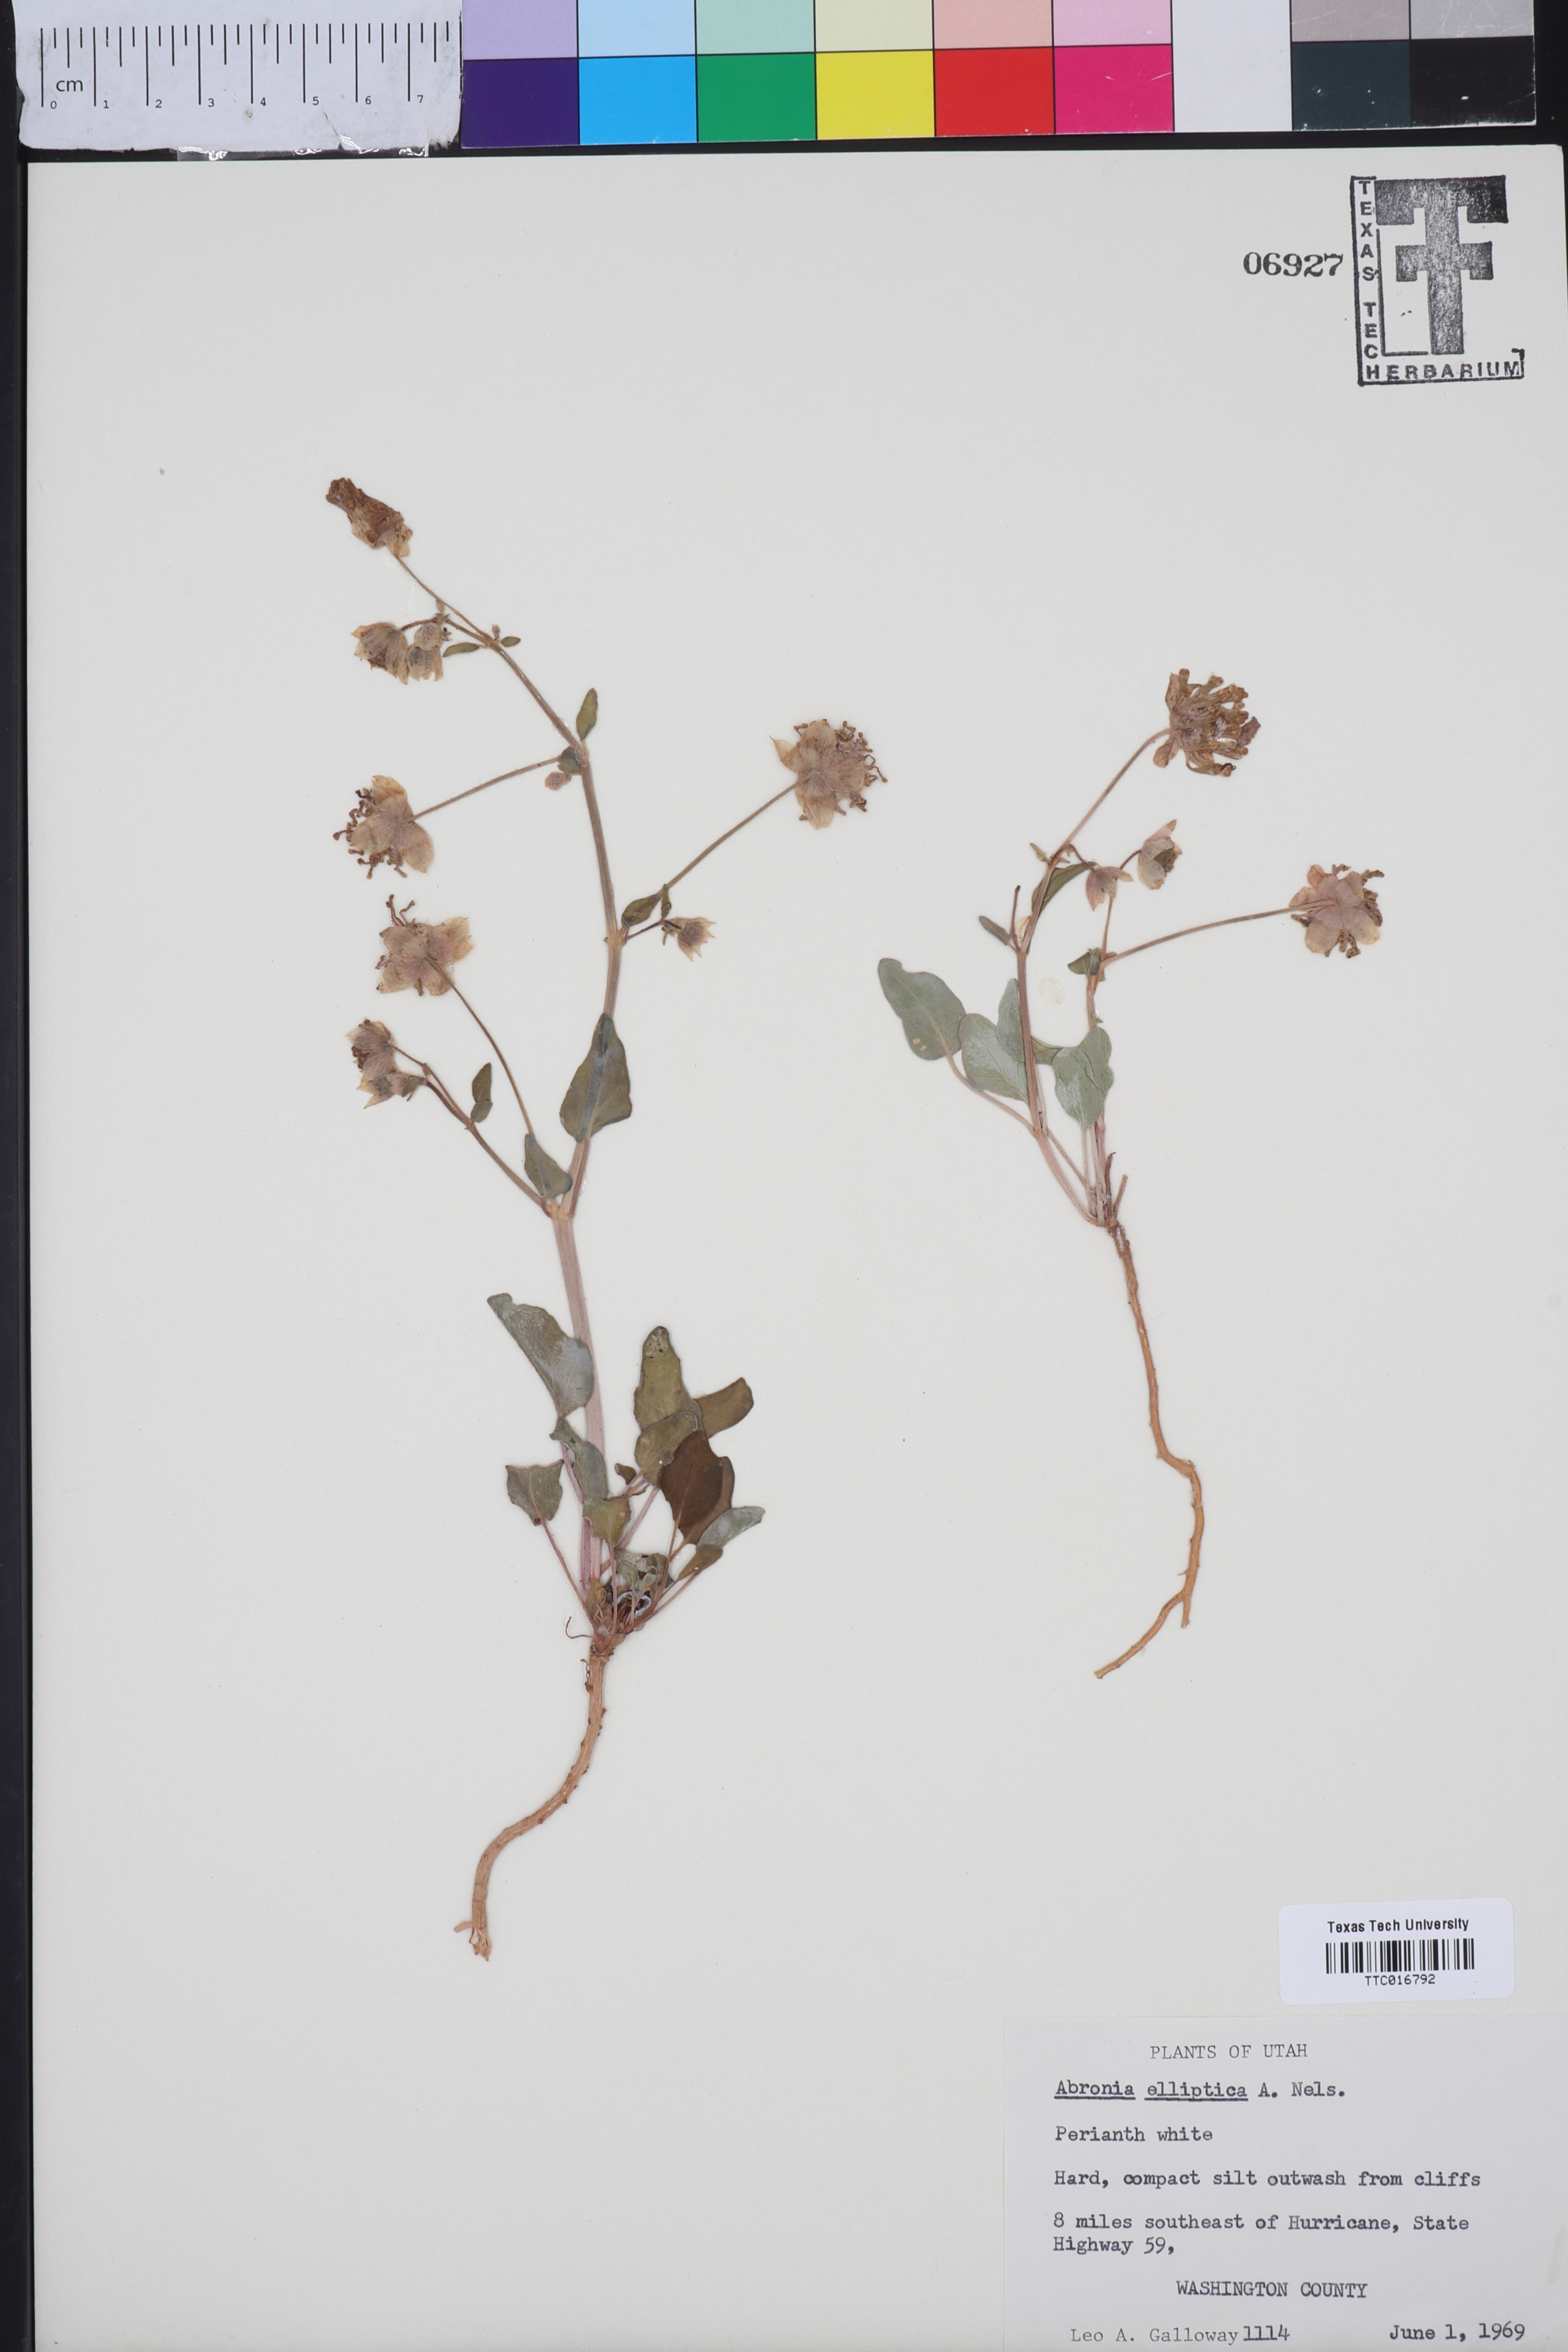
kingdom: Plantae
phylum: Tracheophyta
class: Magnoliopsida
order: Caryophyllales
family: Nyctaginaceae
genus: Abronia
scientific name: Abronia elliptica
